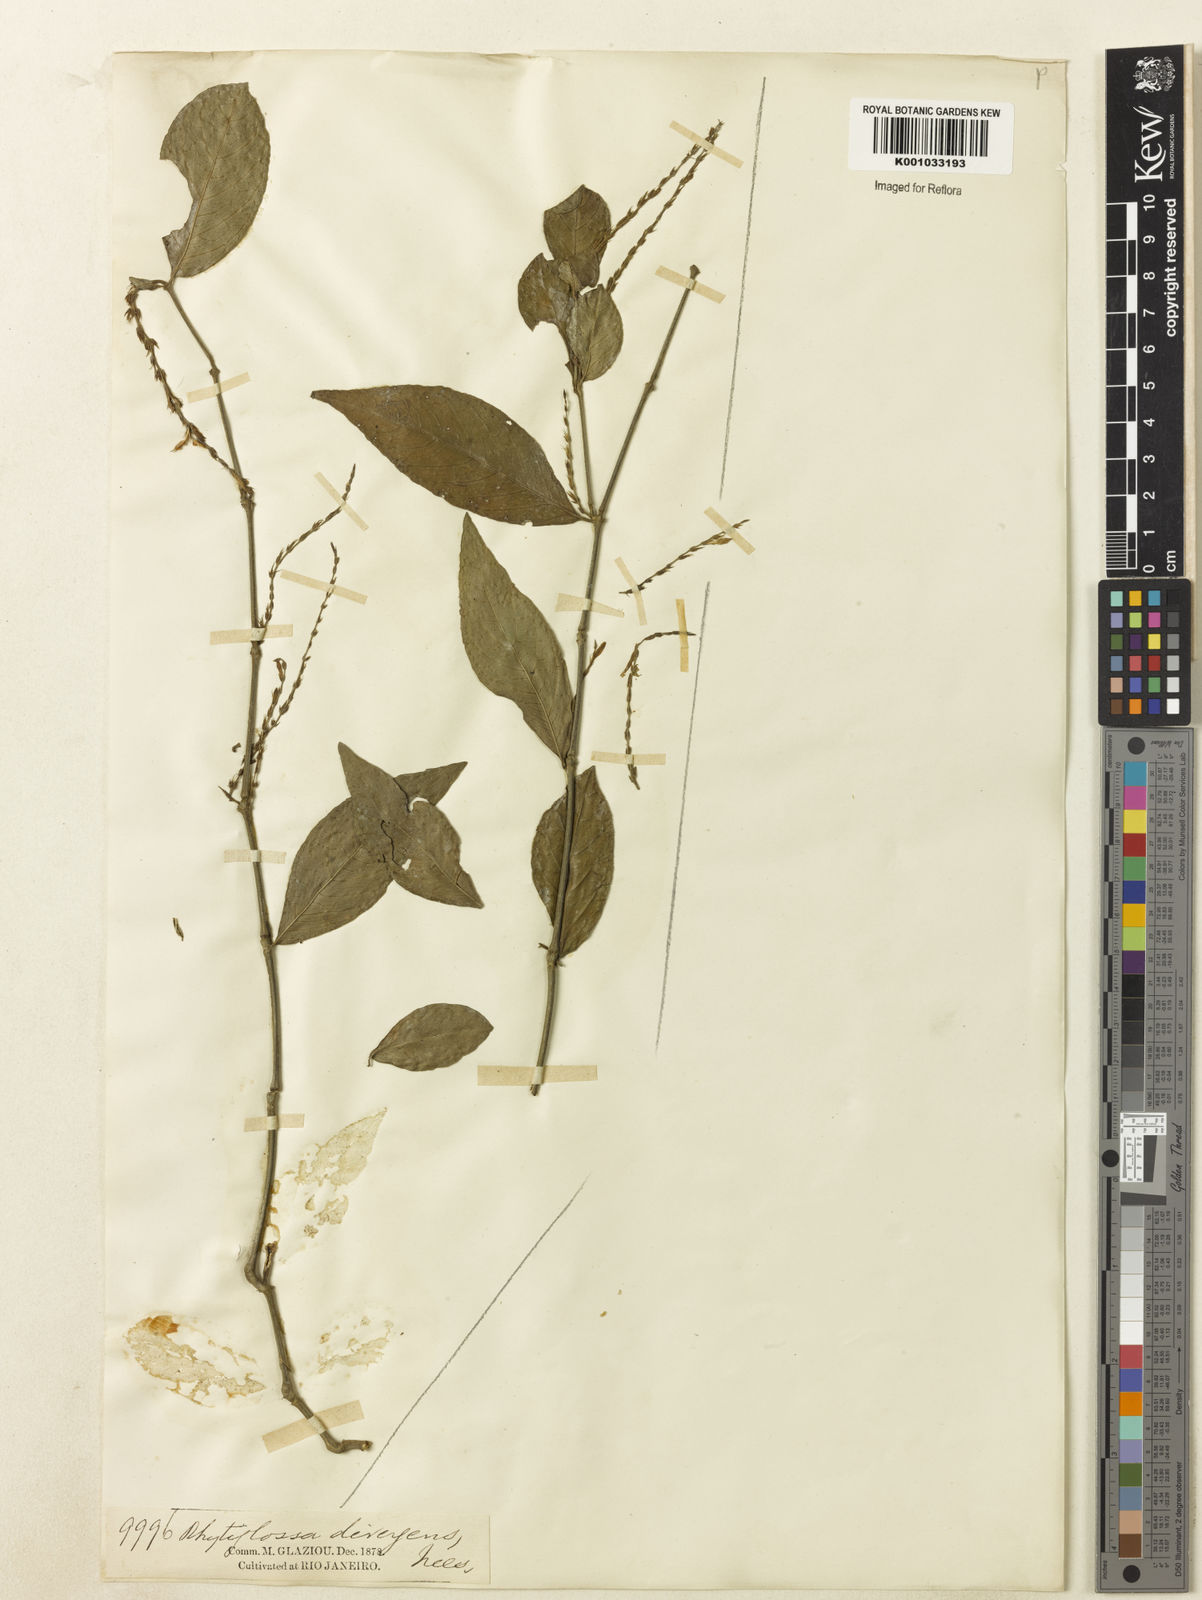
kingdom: Plantae
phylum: Tracheophyta
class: Magnoliopsida
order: Lamiales
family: Acanthaceae
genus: Justicia
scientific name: Justicia
